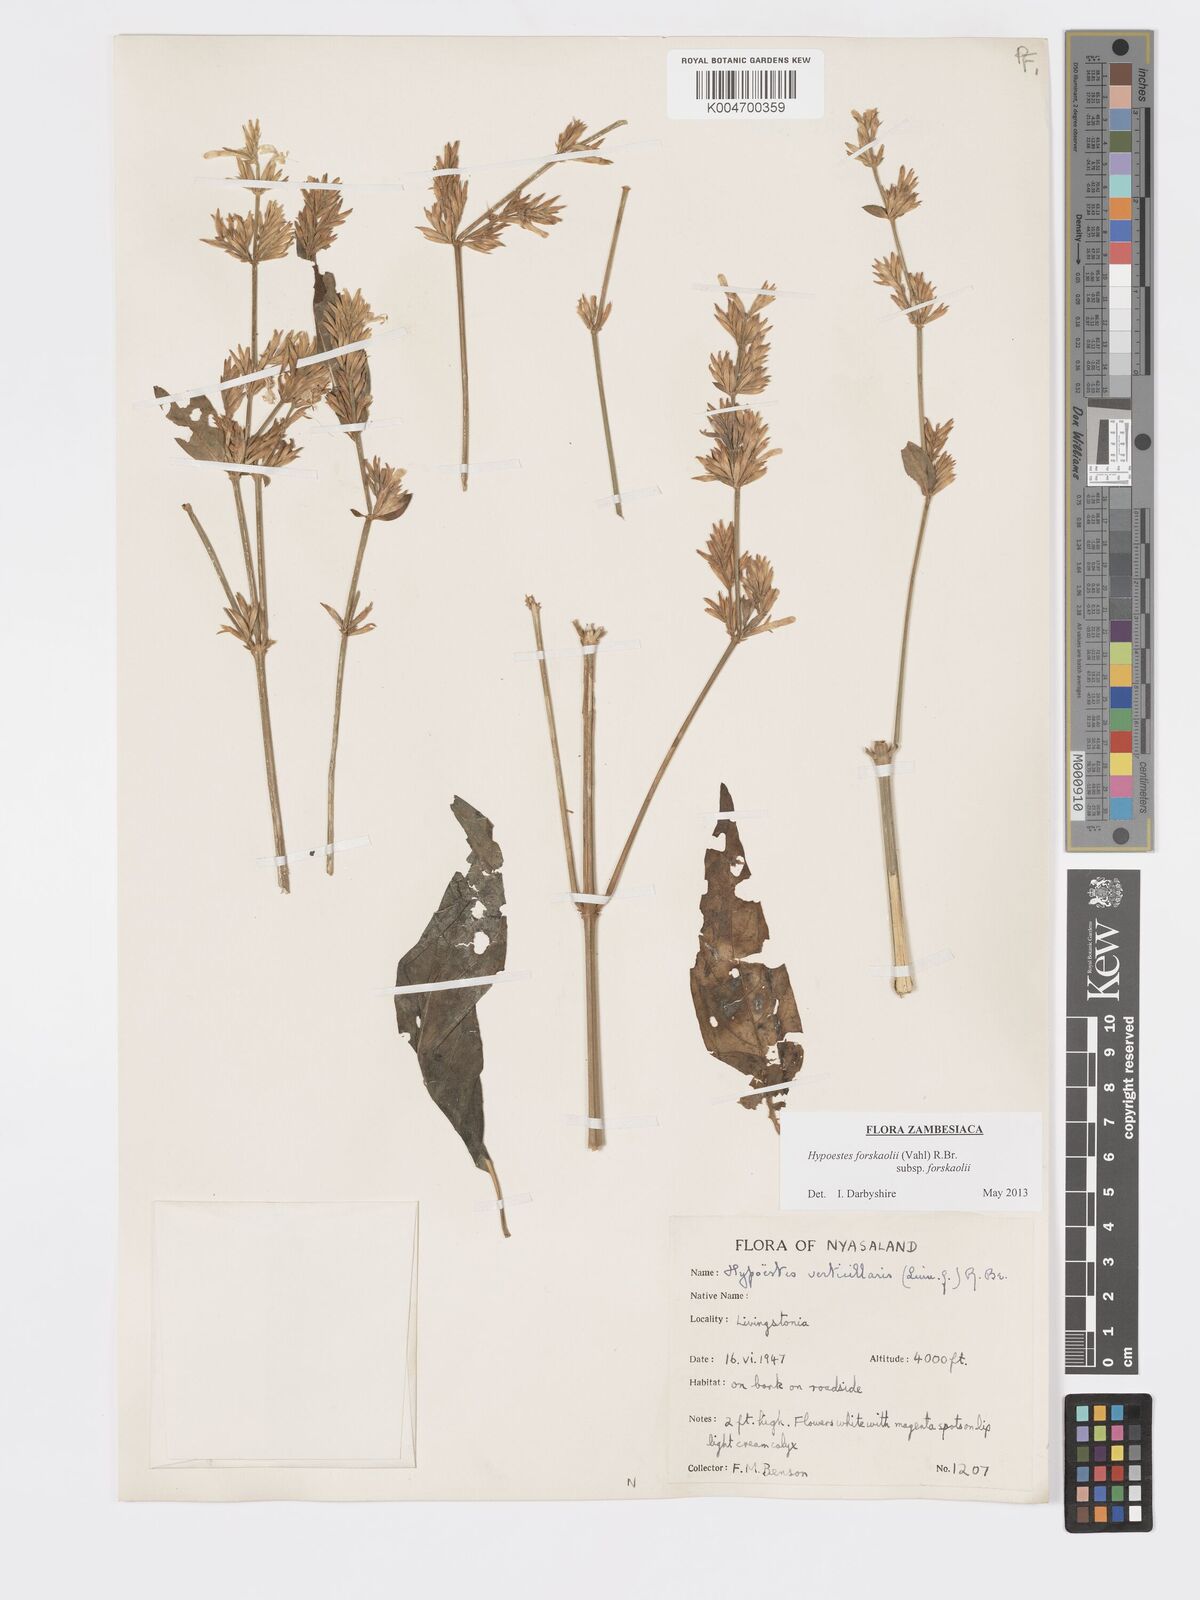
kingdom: Plantae
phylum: Tracheophyta
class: Magnoliopsida
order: Lamiales
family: Acanthaceae
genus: Hypoestes
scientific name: Hypoestes forskaolii
